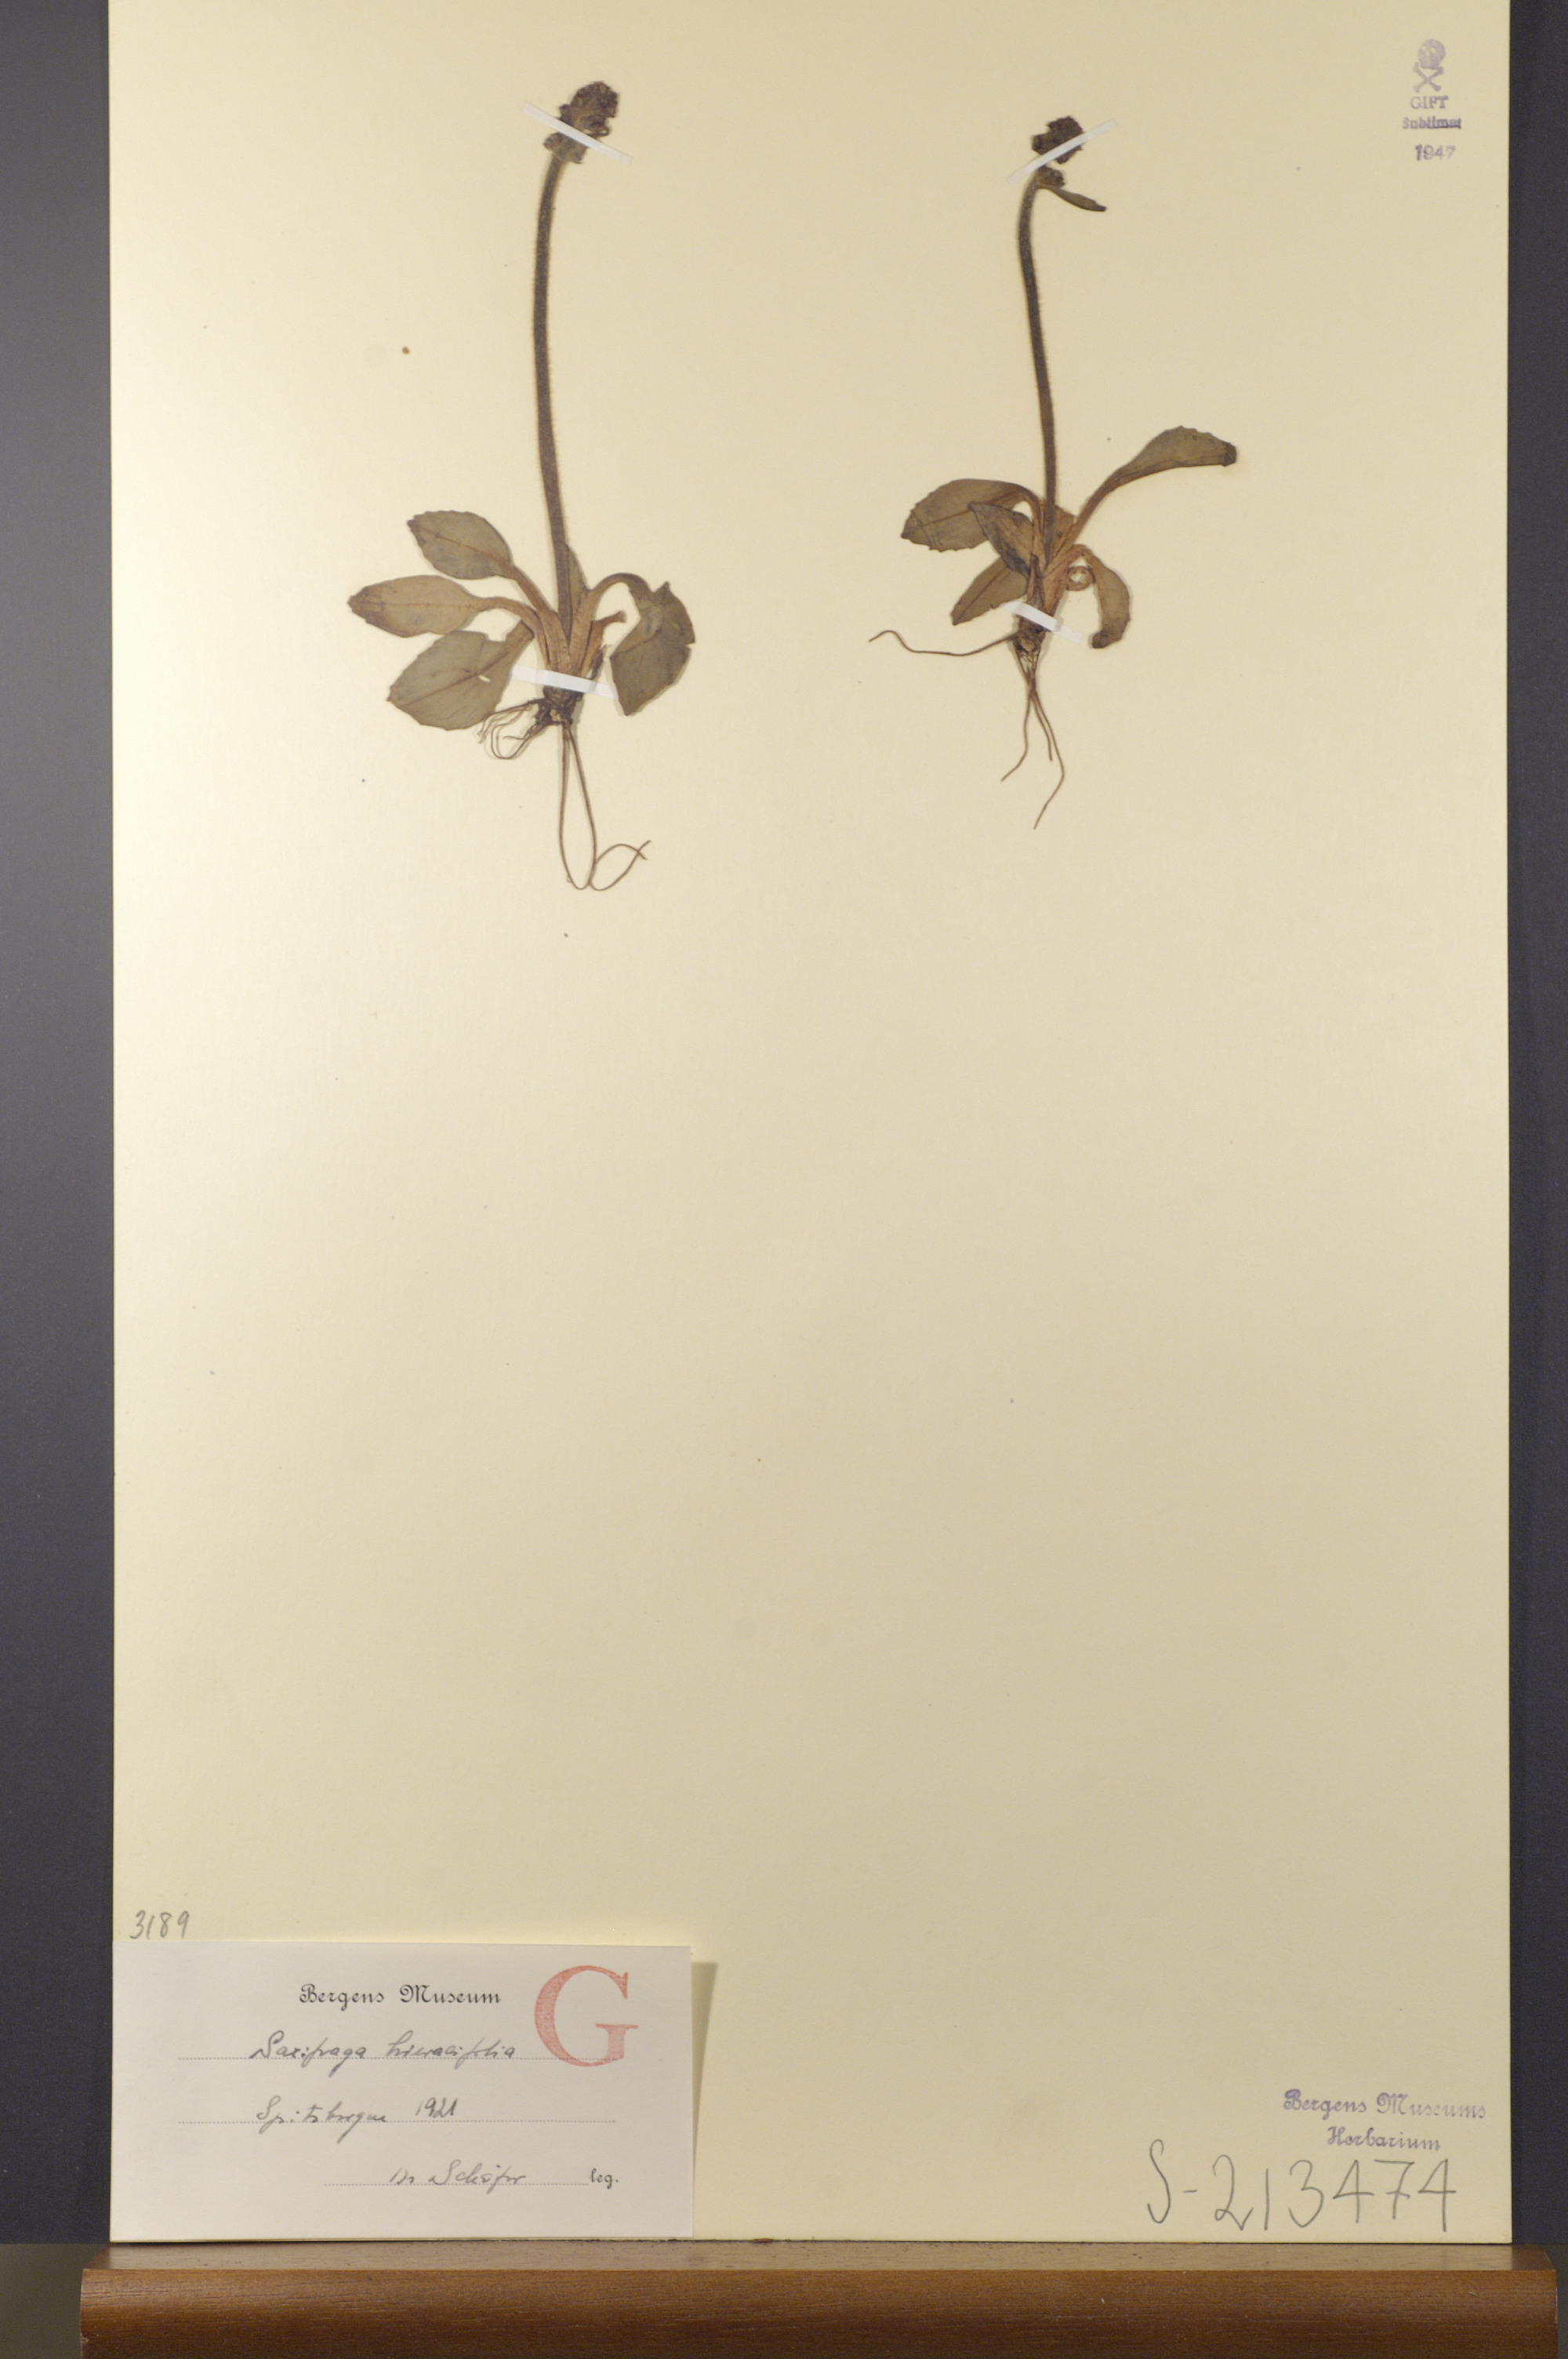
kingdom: Plantae
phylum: Tracheophyta
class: Magnoliopsida
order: Saxifragales
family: Saxifragaceae
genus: Micranthes
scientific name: Micranthes hieraciifolia
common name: Hawkweed-leaved saxifrage
